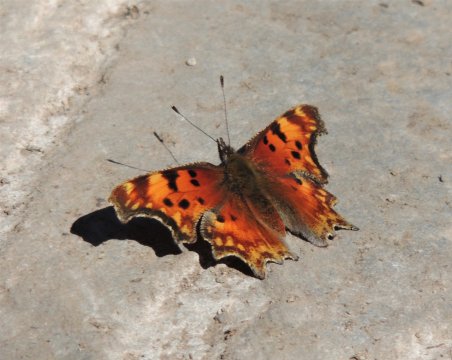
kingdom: Animalia
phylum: Arthropoda
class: Insecta
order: Lepidoptera
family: Nymphalidae
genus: Polygonia
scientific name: Polygonia gracilis
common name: Hoary Comma
